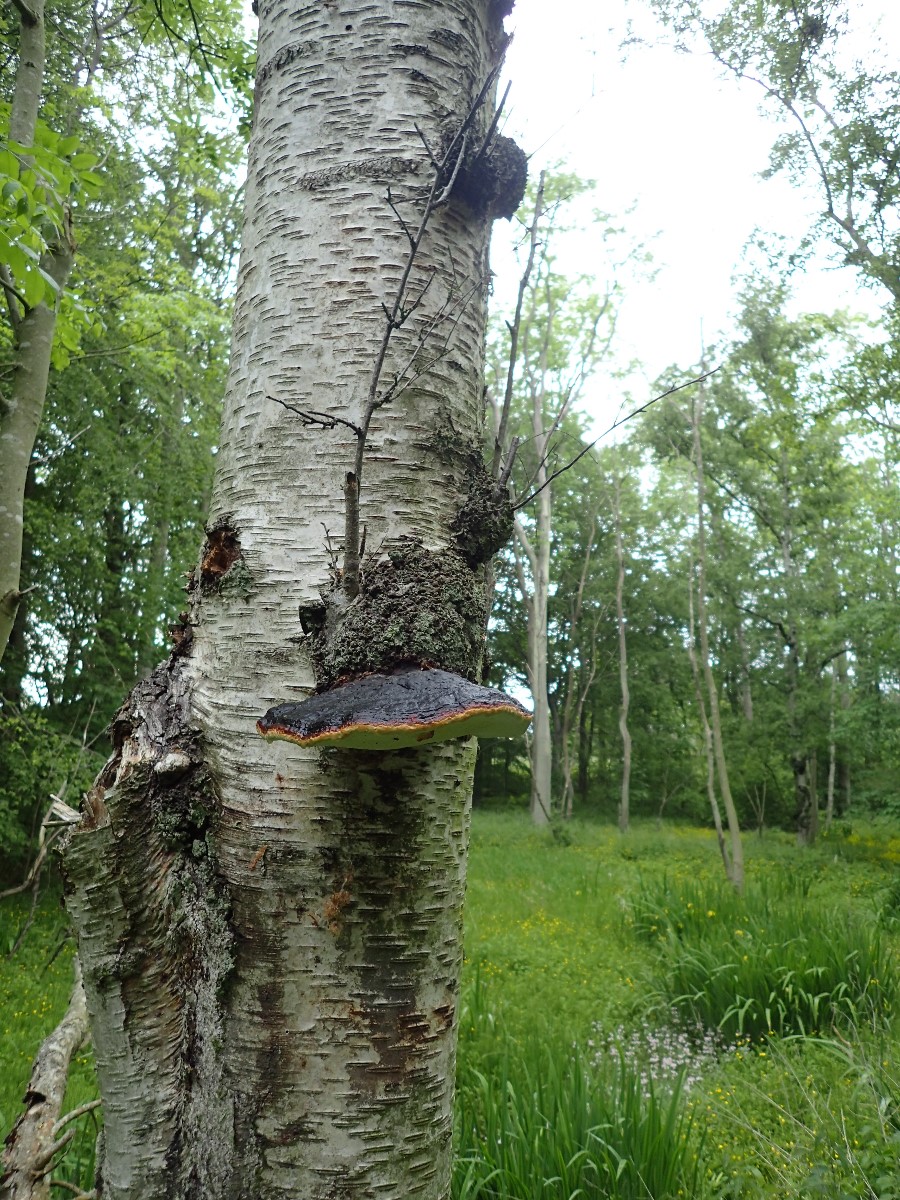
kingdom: Fungi
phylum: Basidiomycota
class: Agaricomycetes
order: Polyporales
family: Fomitopsidaceae
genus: Fomitopsis
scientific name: Fomitopsis pinicola
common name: randbæltet hovporesvamp
